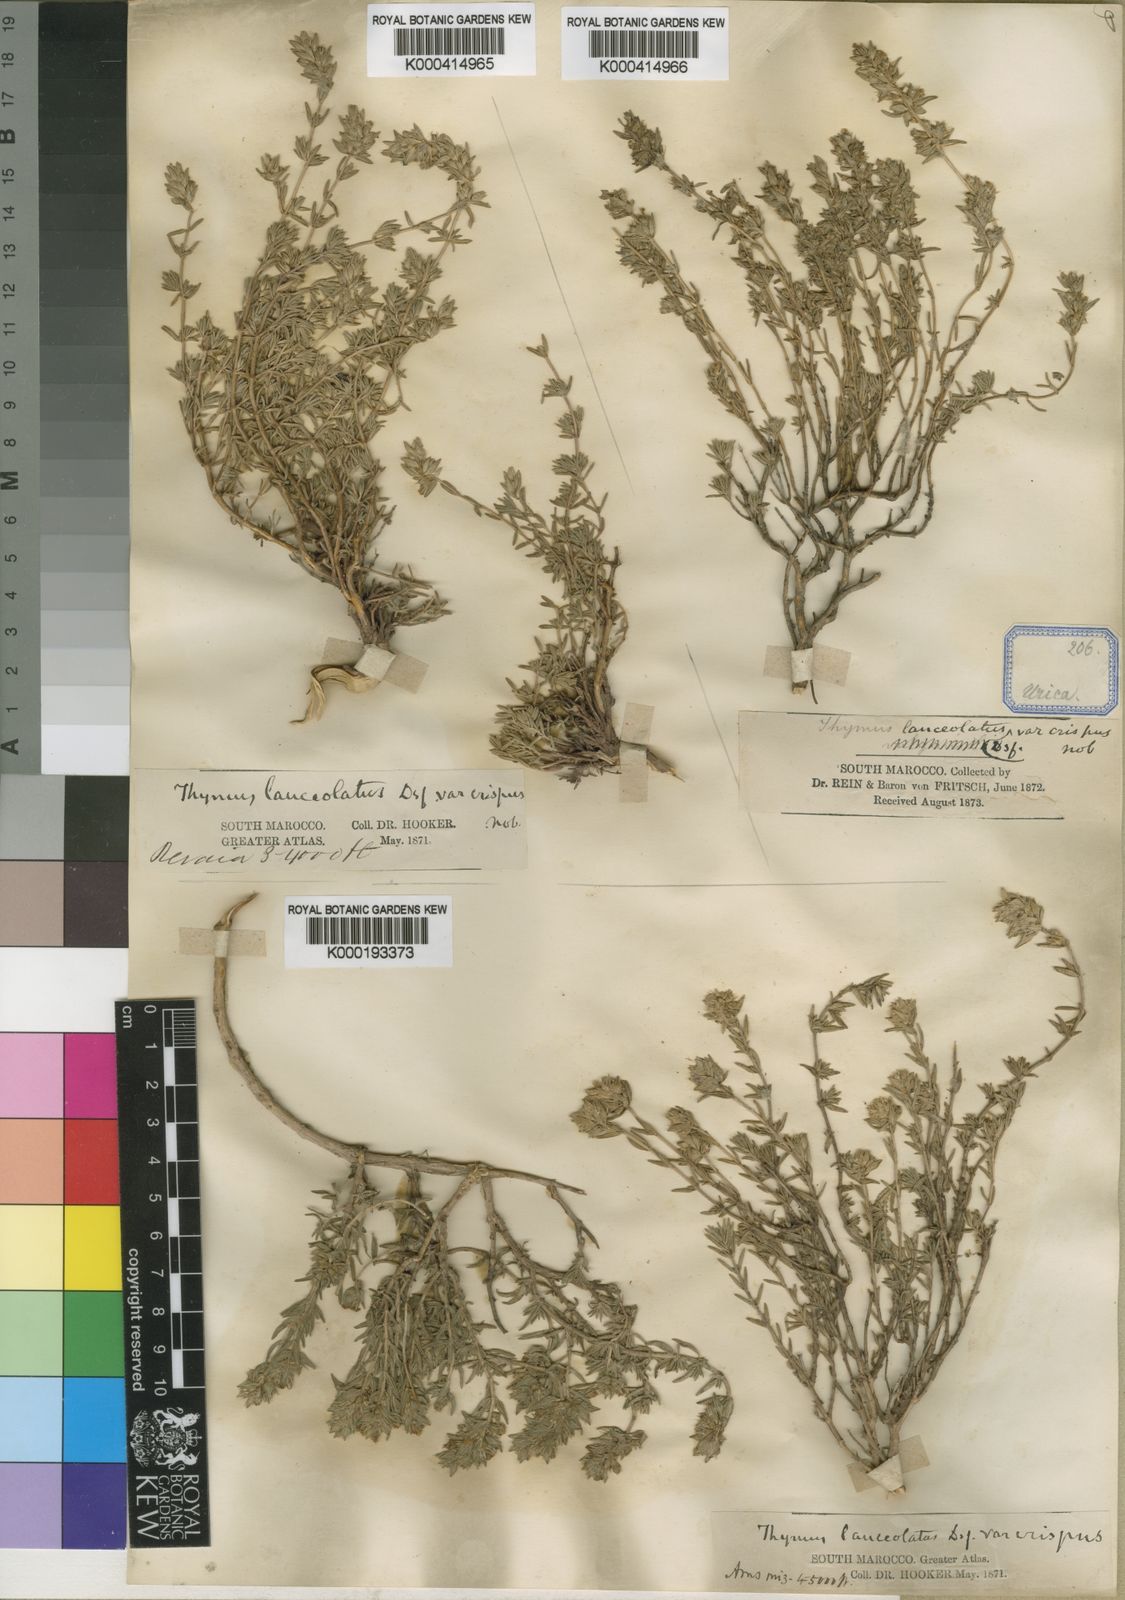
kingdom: Plantae
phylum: Tracheophyta
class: Magnoliopsida
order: Lamiales
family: Lamiaceae
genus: Thymus
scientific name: Thymus lanceolatus
